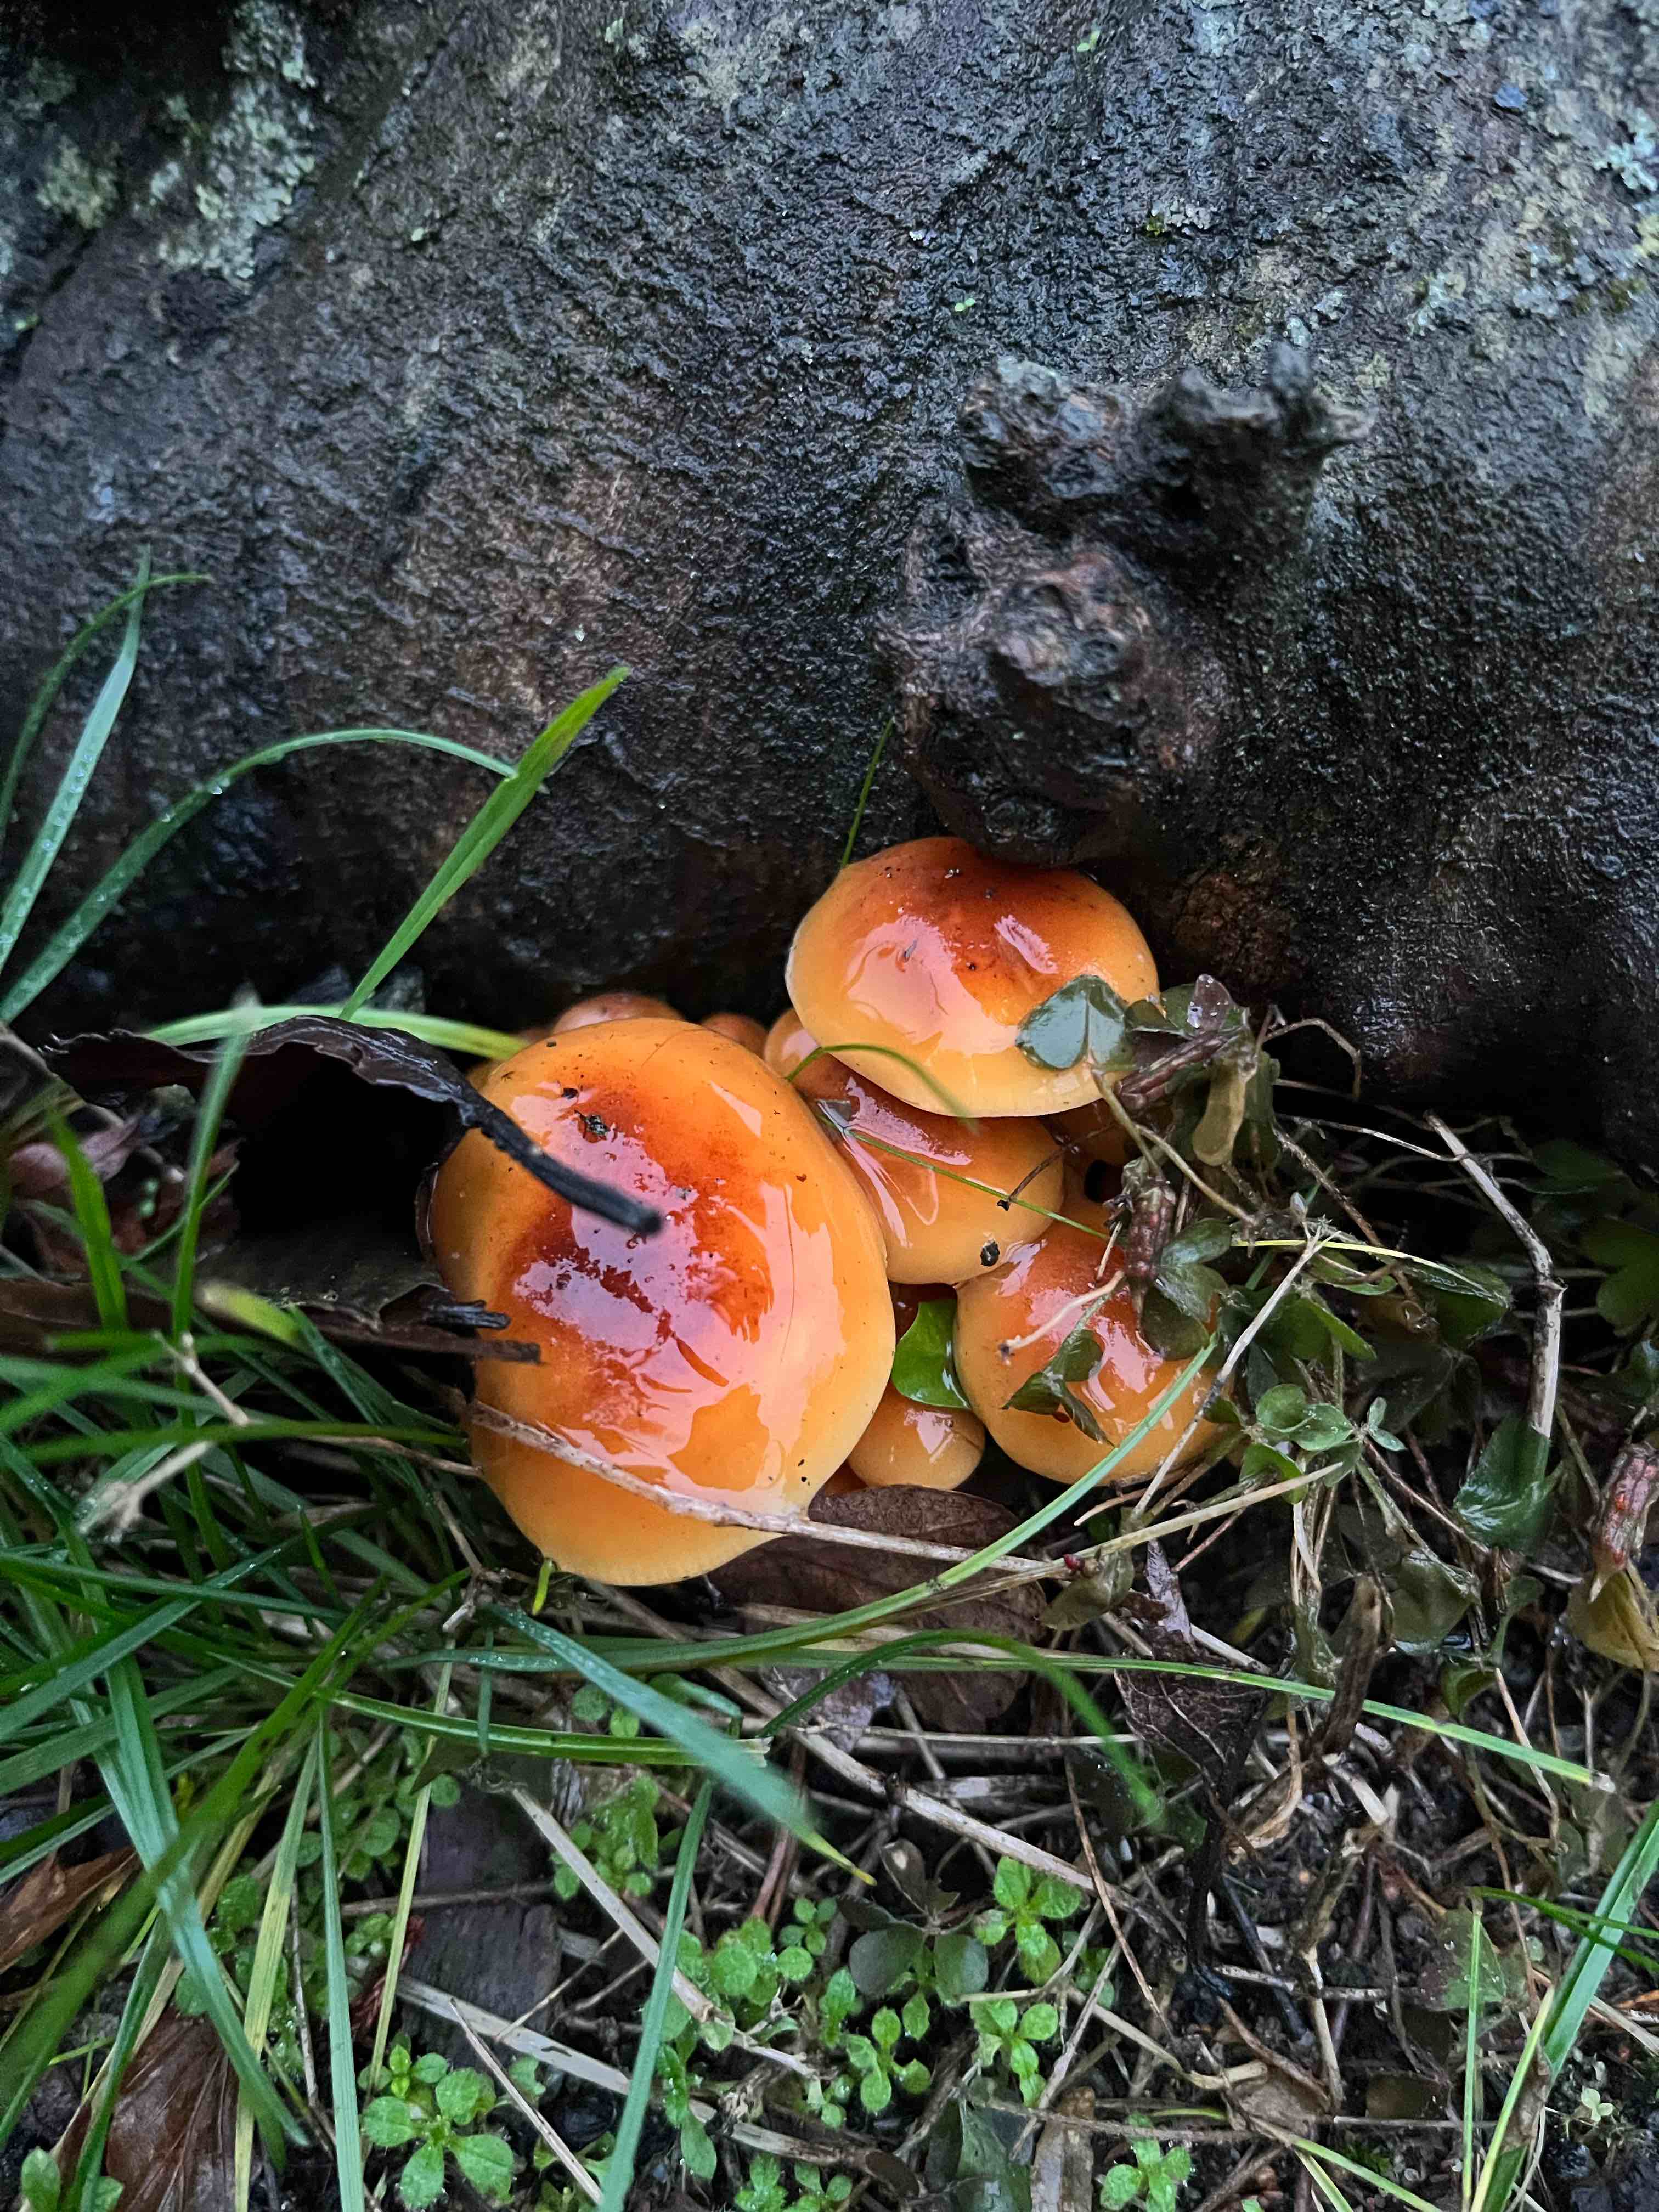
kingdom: Fungi
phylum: Basidiomycota
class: Agaricomycetes
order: Agaricales
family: Physalacriaceae
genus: Flammulina
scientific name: Flammulina
